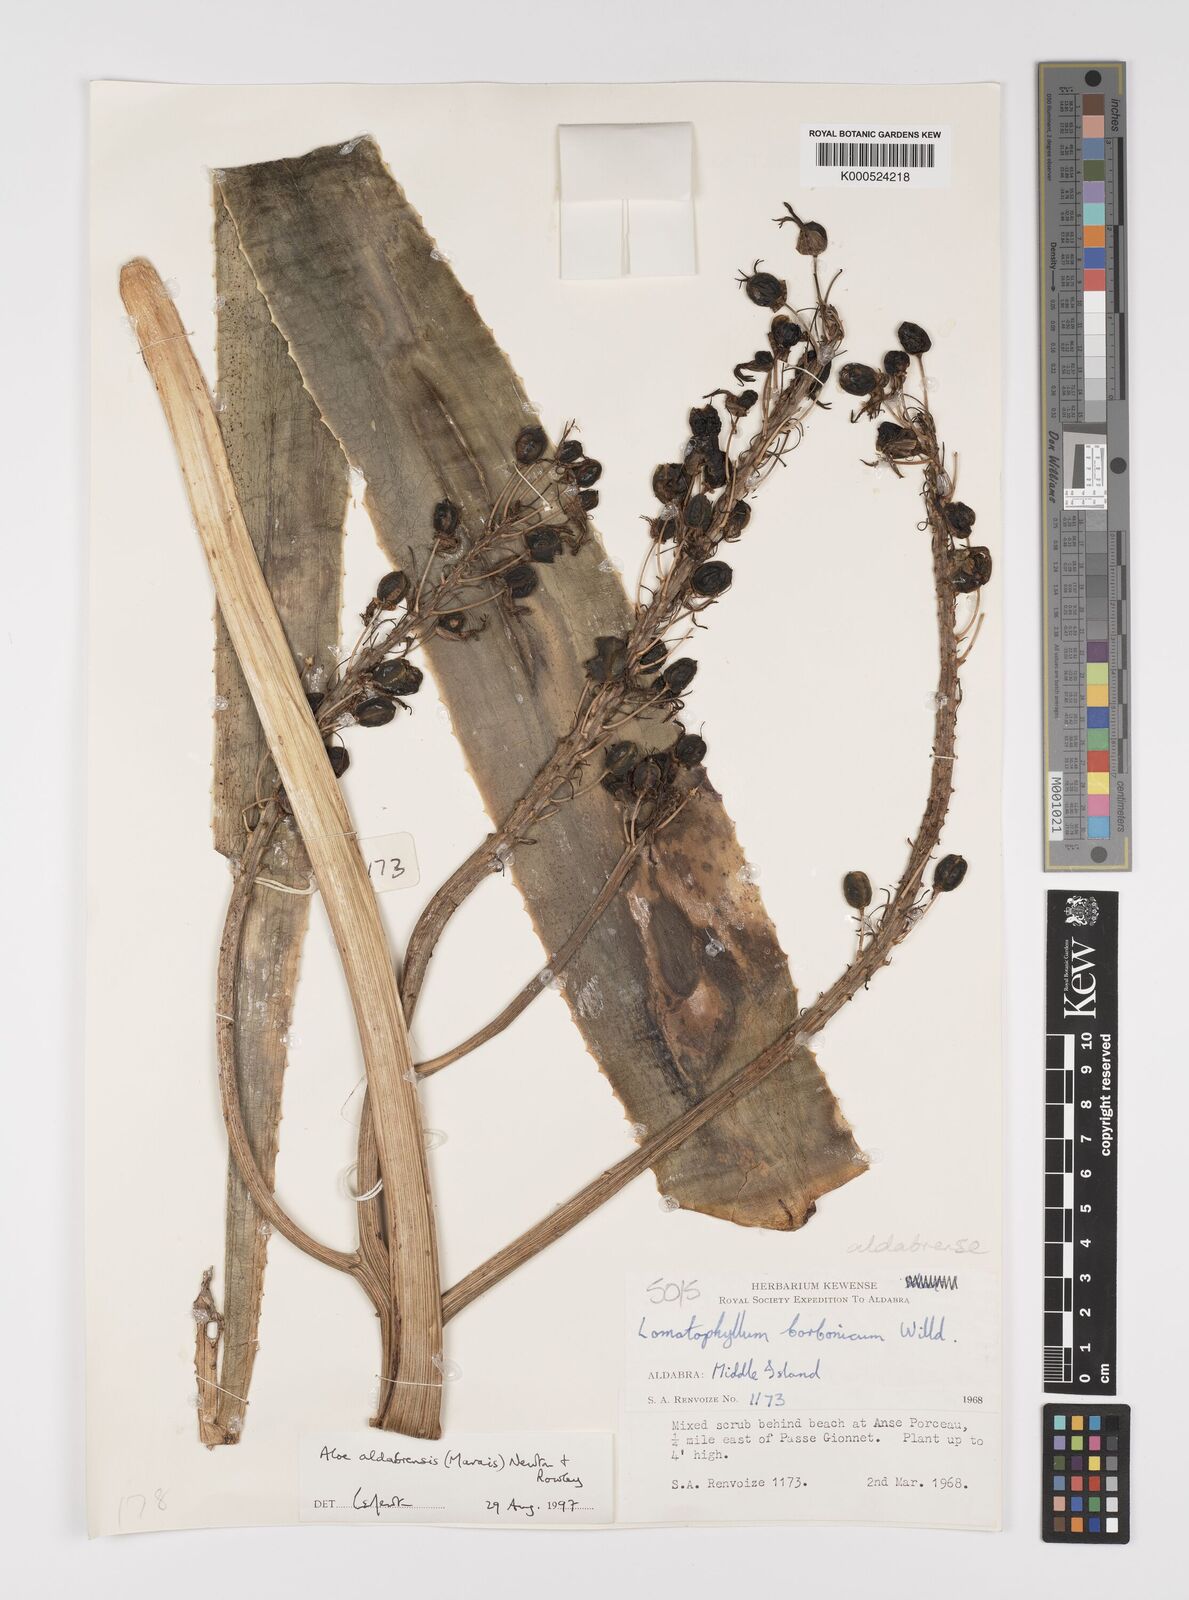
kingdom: Plantae
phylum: Tracheophyta
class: Liliopsida
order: Asparagales
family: Asphodelaceae
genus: Aloe
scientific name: Aloe aldabrensis
